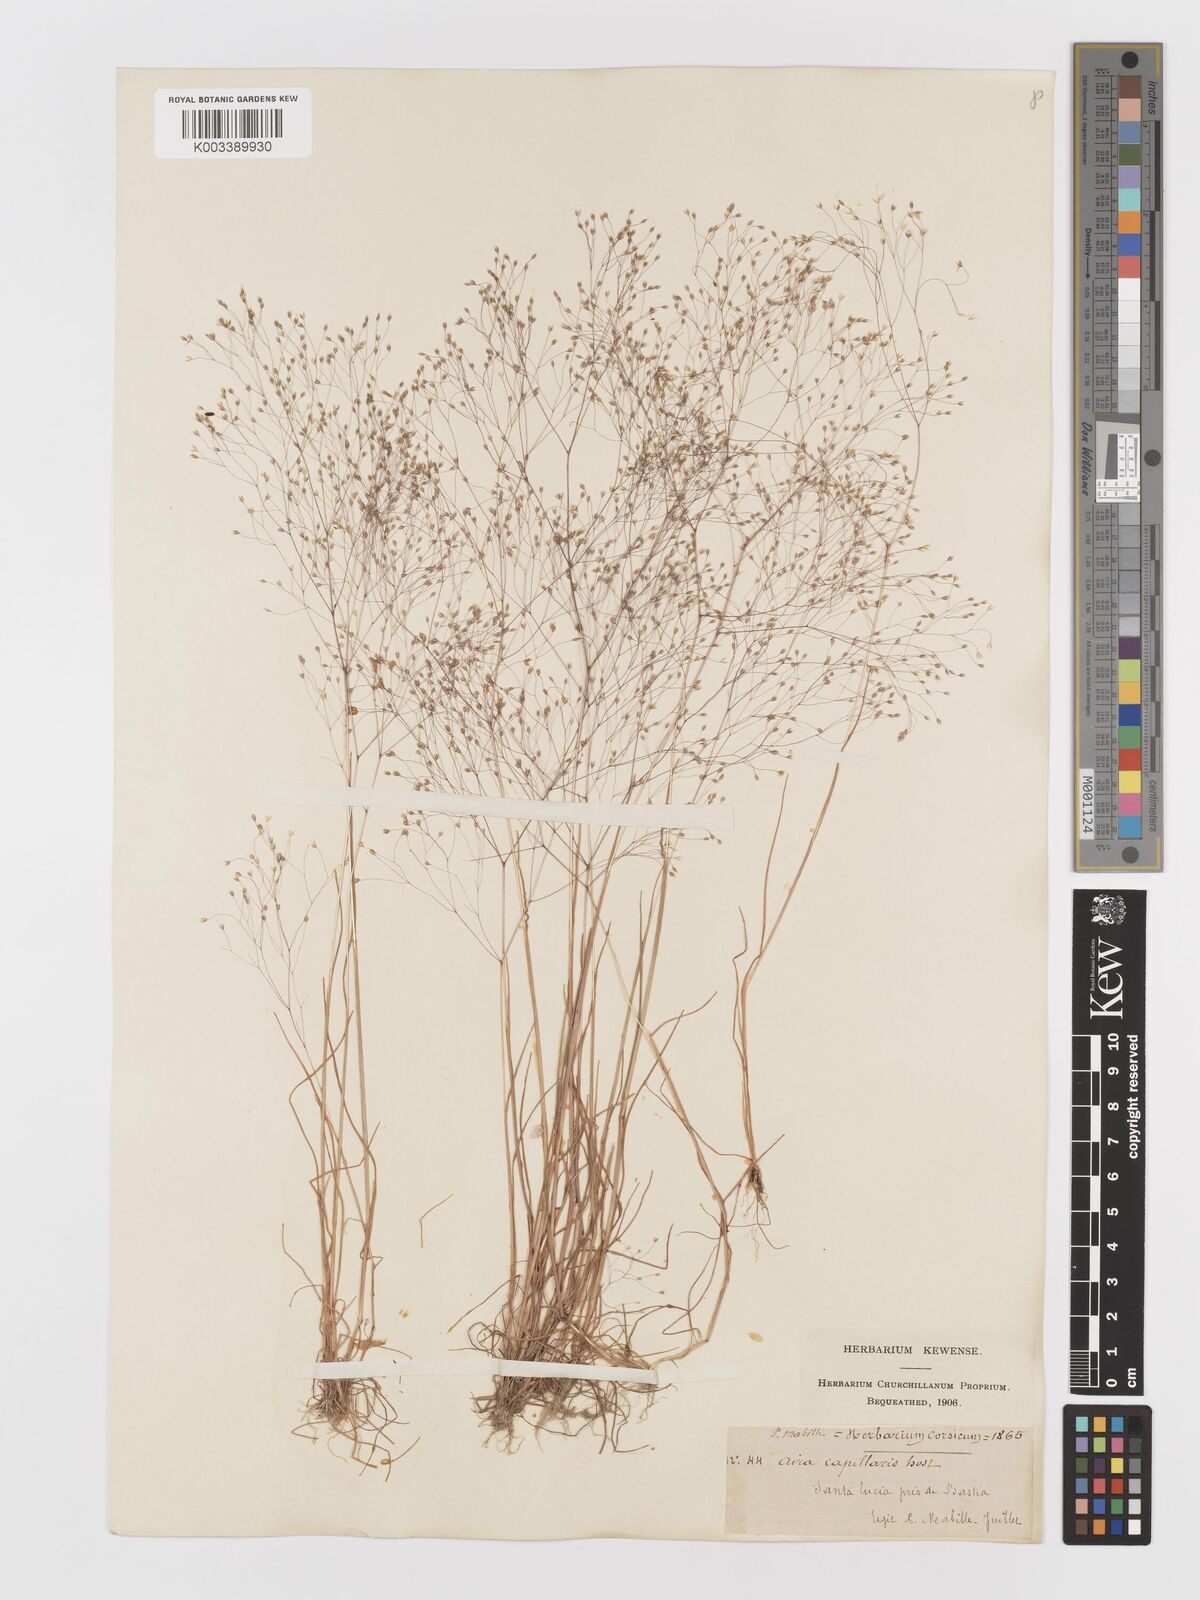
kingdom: Plantae
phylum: Tracheophyta
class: Liliopsida
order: Poales
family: Poaceae
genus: Aira
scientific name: Aira
